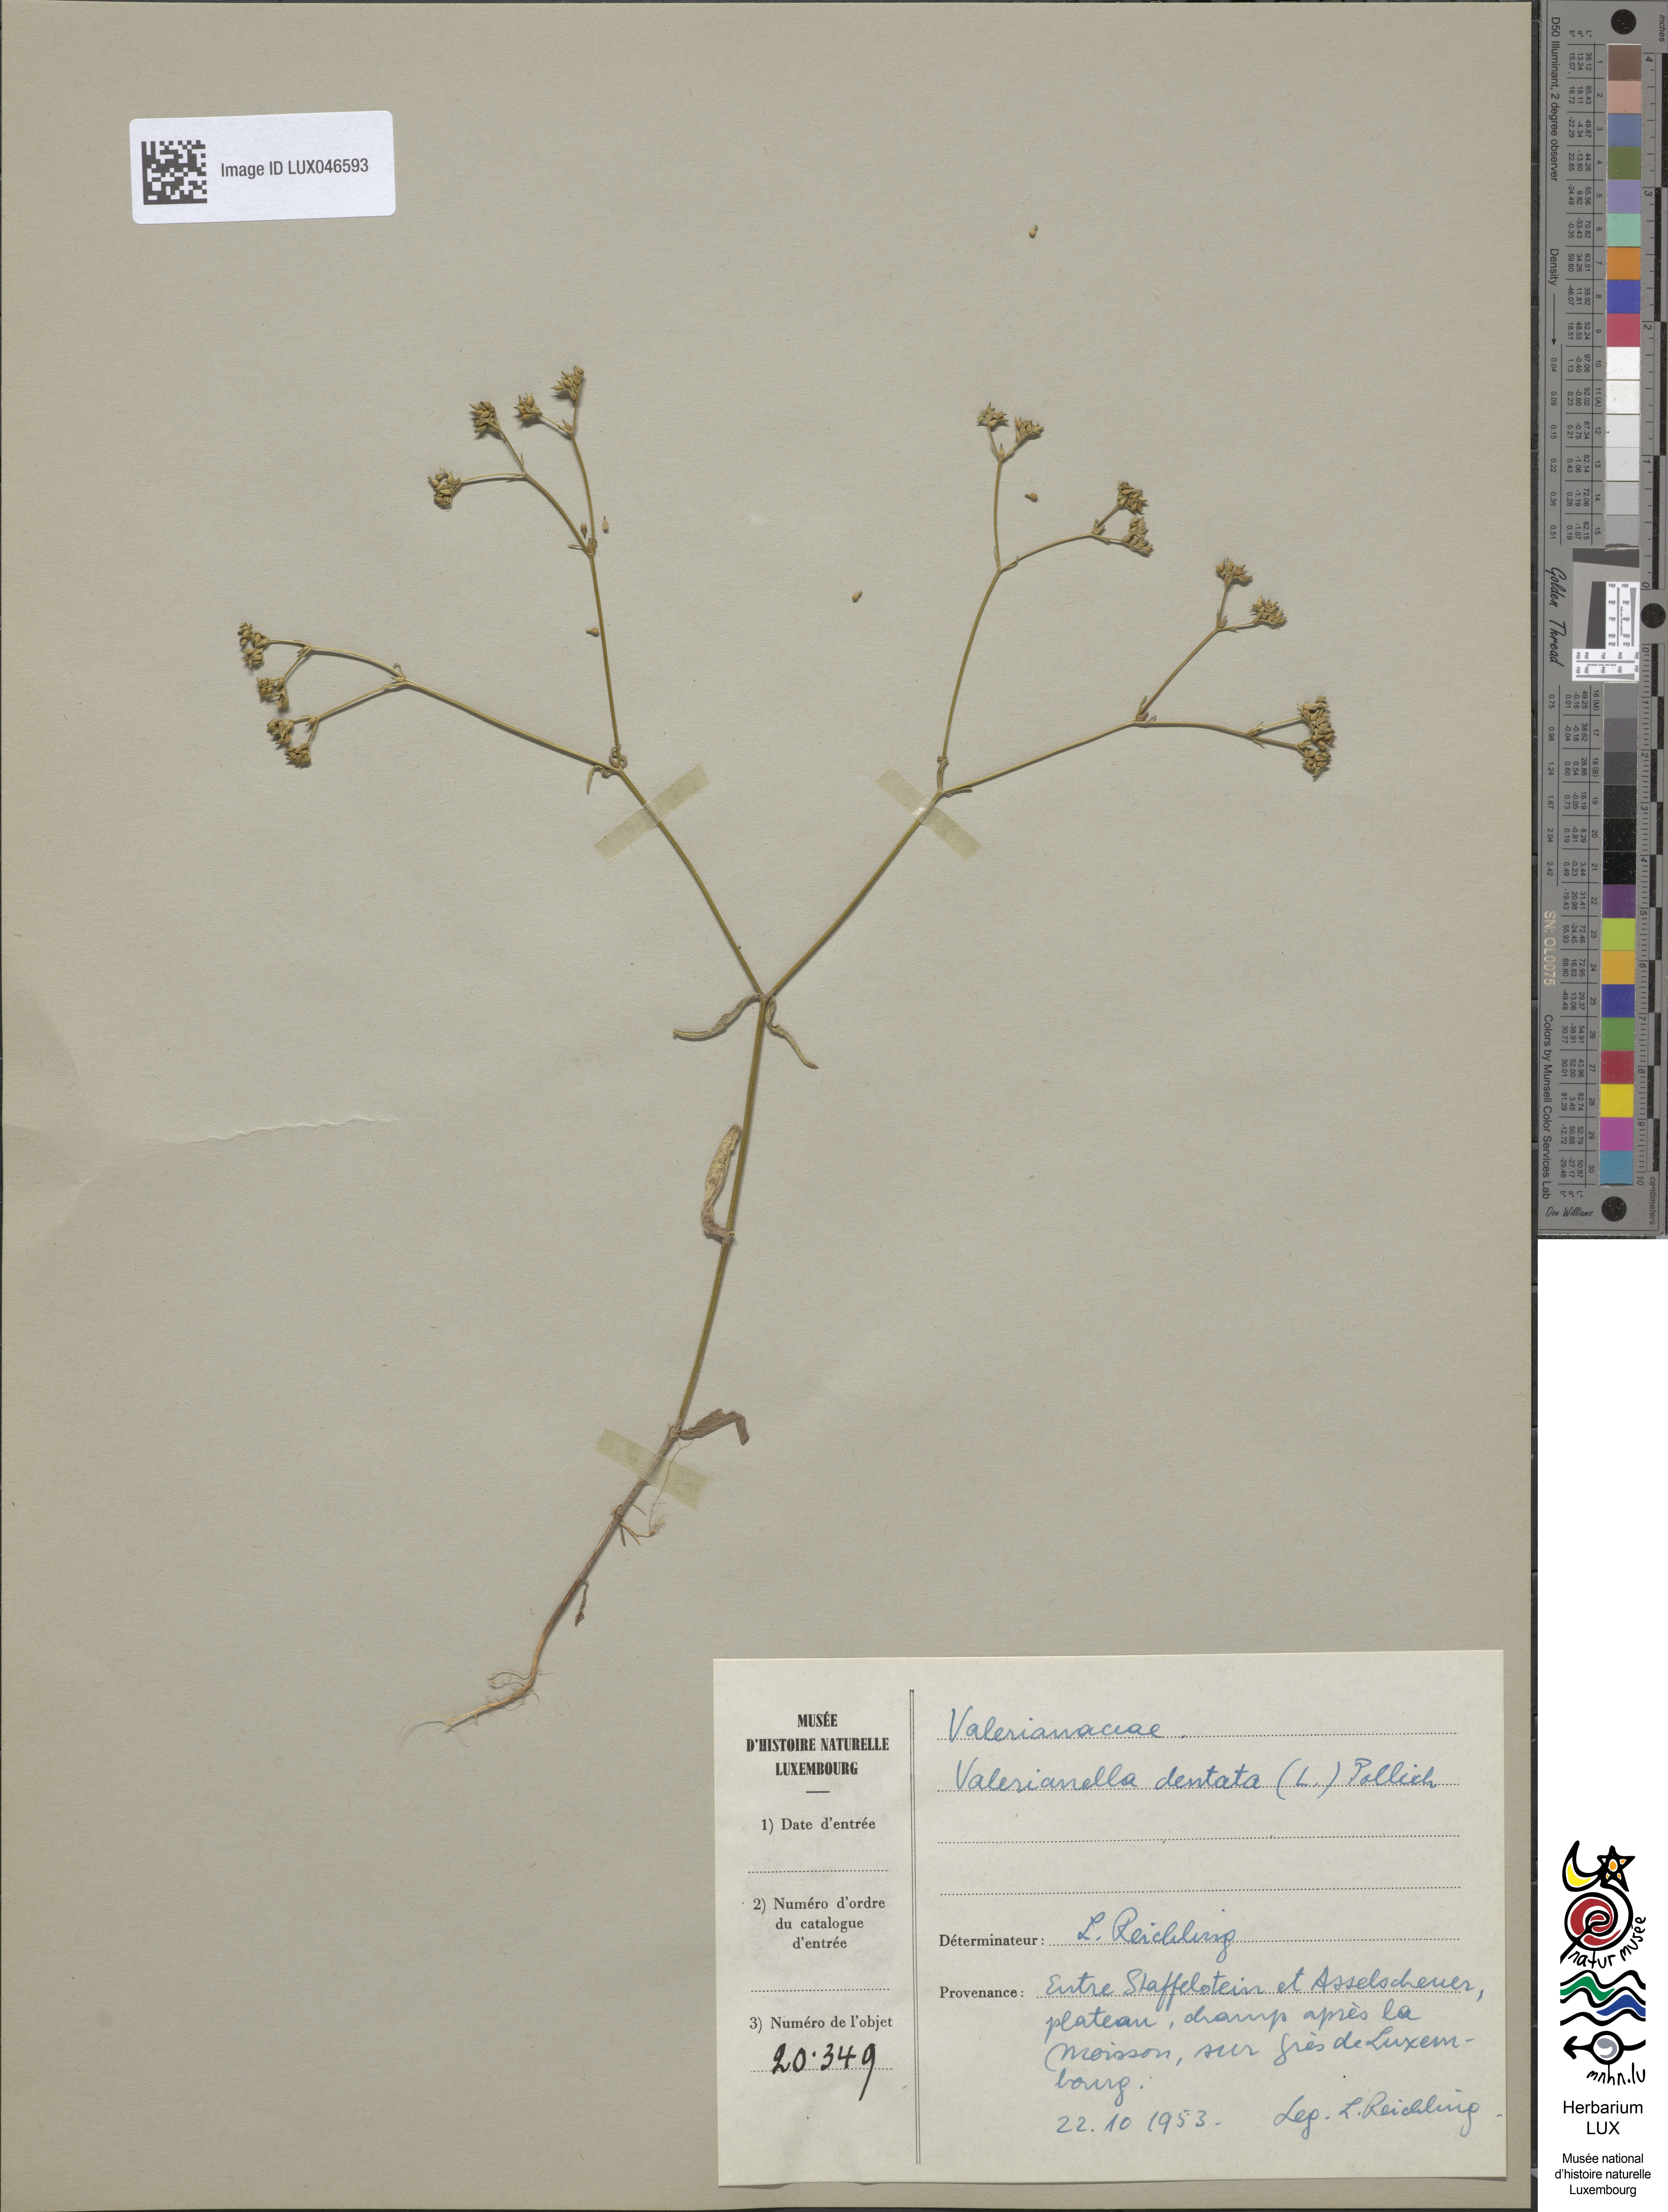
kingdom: Plantae
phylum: Tracheophyta
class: Magnoliopsida
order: Dipsacales
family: Caprifoliaceae
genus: Valerianella
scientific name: Valerianella dentata
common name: Narrow-fruited cornsalad
